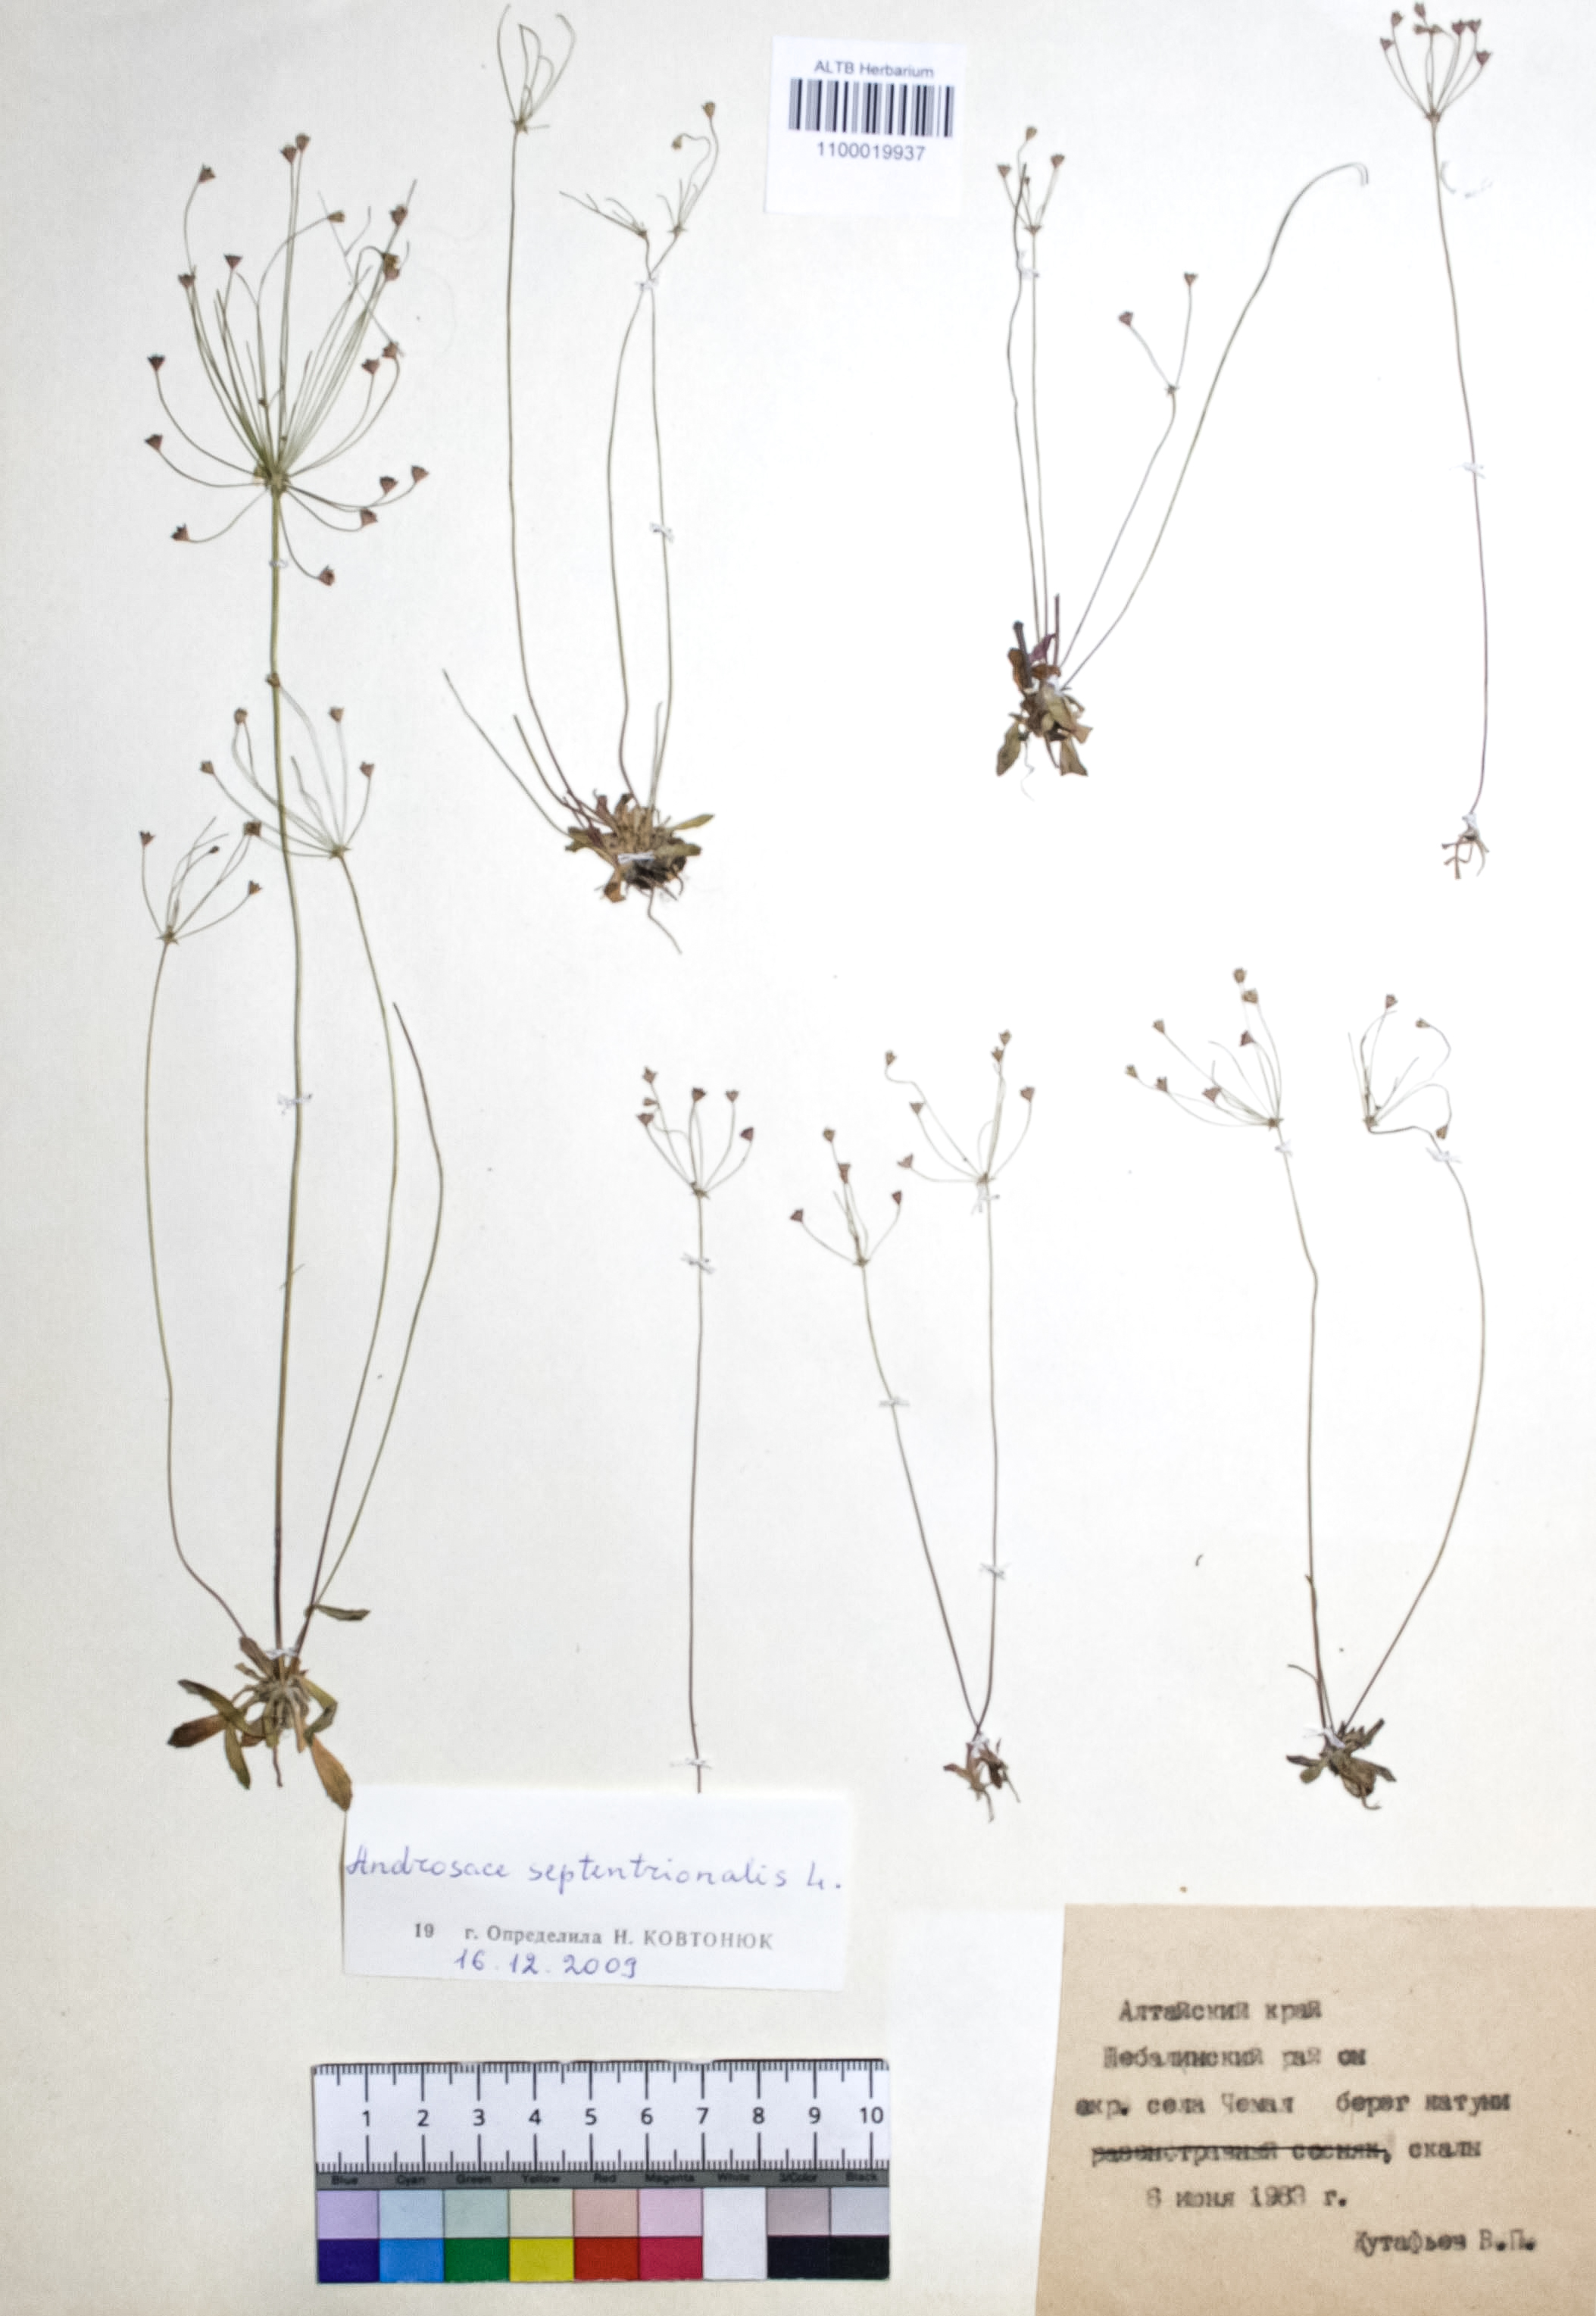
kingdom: Plantae
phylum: Tracheophyta
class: Magnoliopsida
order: Ericales
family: Primulaceae
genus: Androsace
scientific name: Androsace septentrionalis
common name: Hairy northern fairy-candelabra
